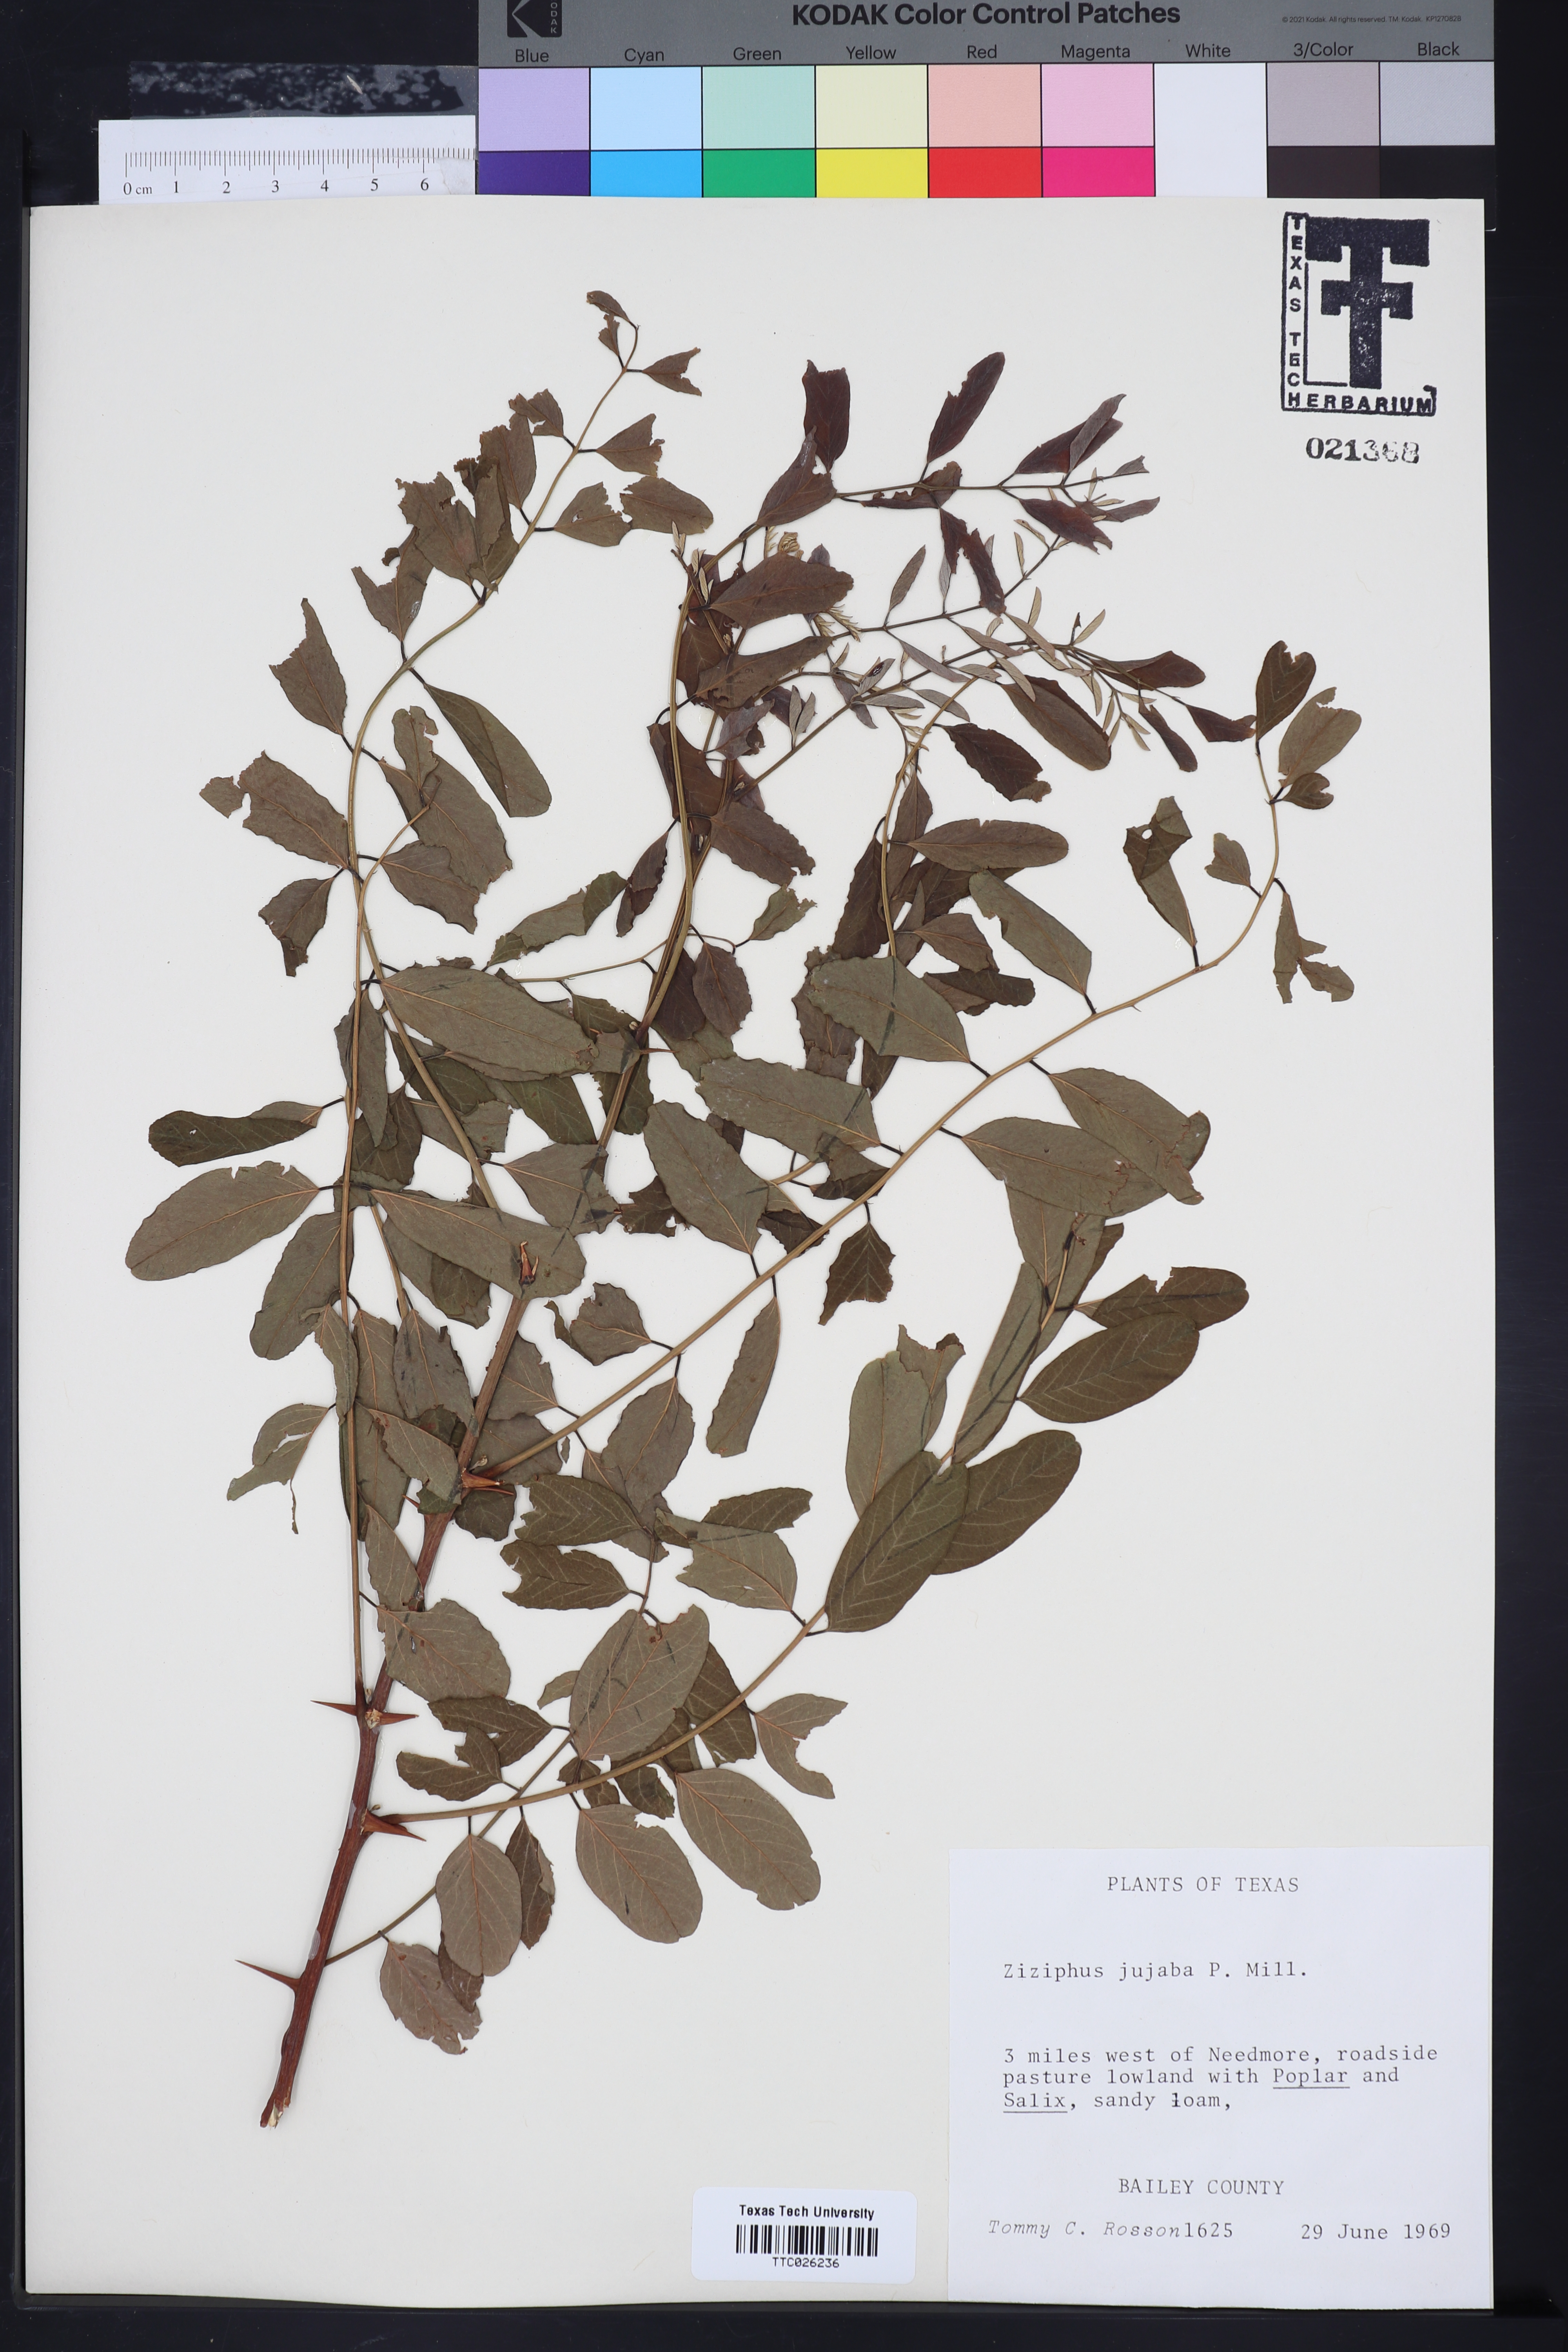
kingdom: Plantae
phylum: Tracheophyta
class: Magnoliopsida
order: Rosales
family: Rhamnaceae
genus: Ziziphus
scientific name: Ziziphus jujuba
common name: Jujube red date
